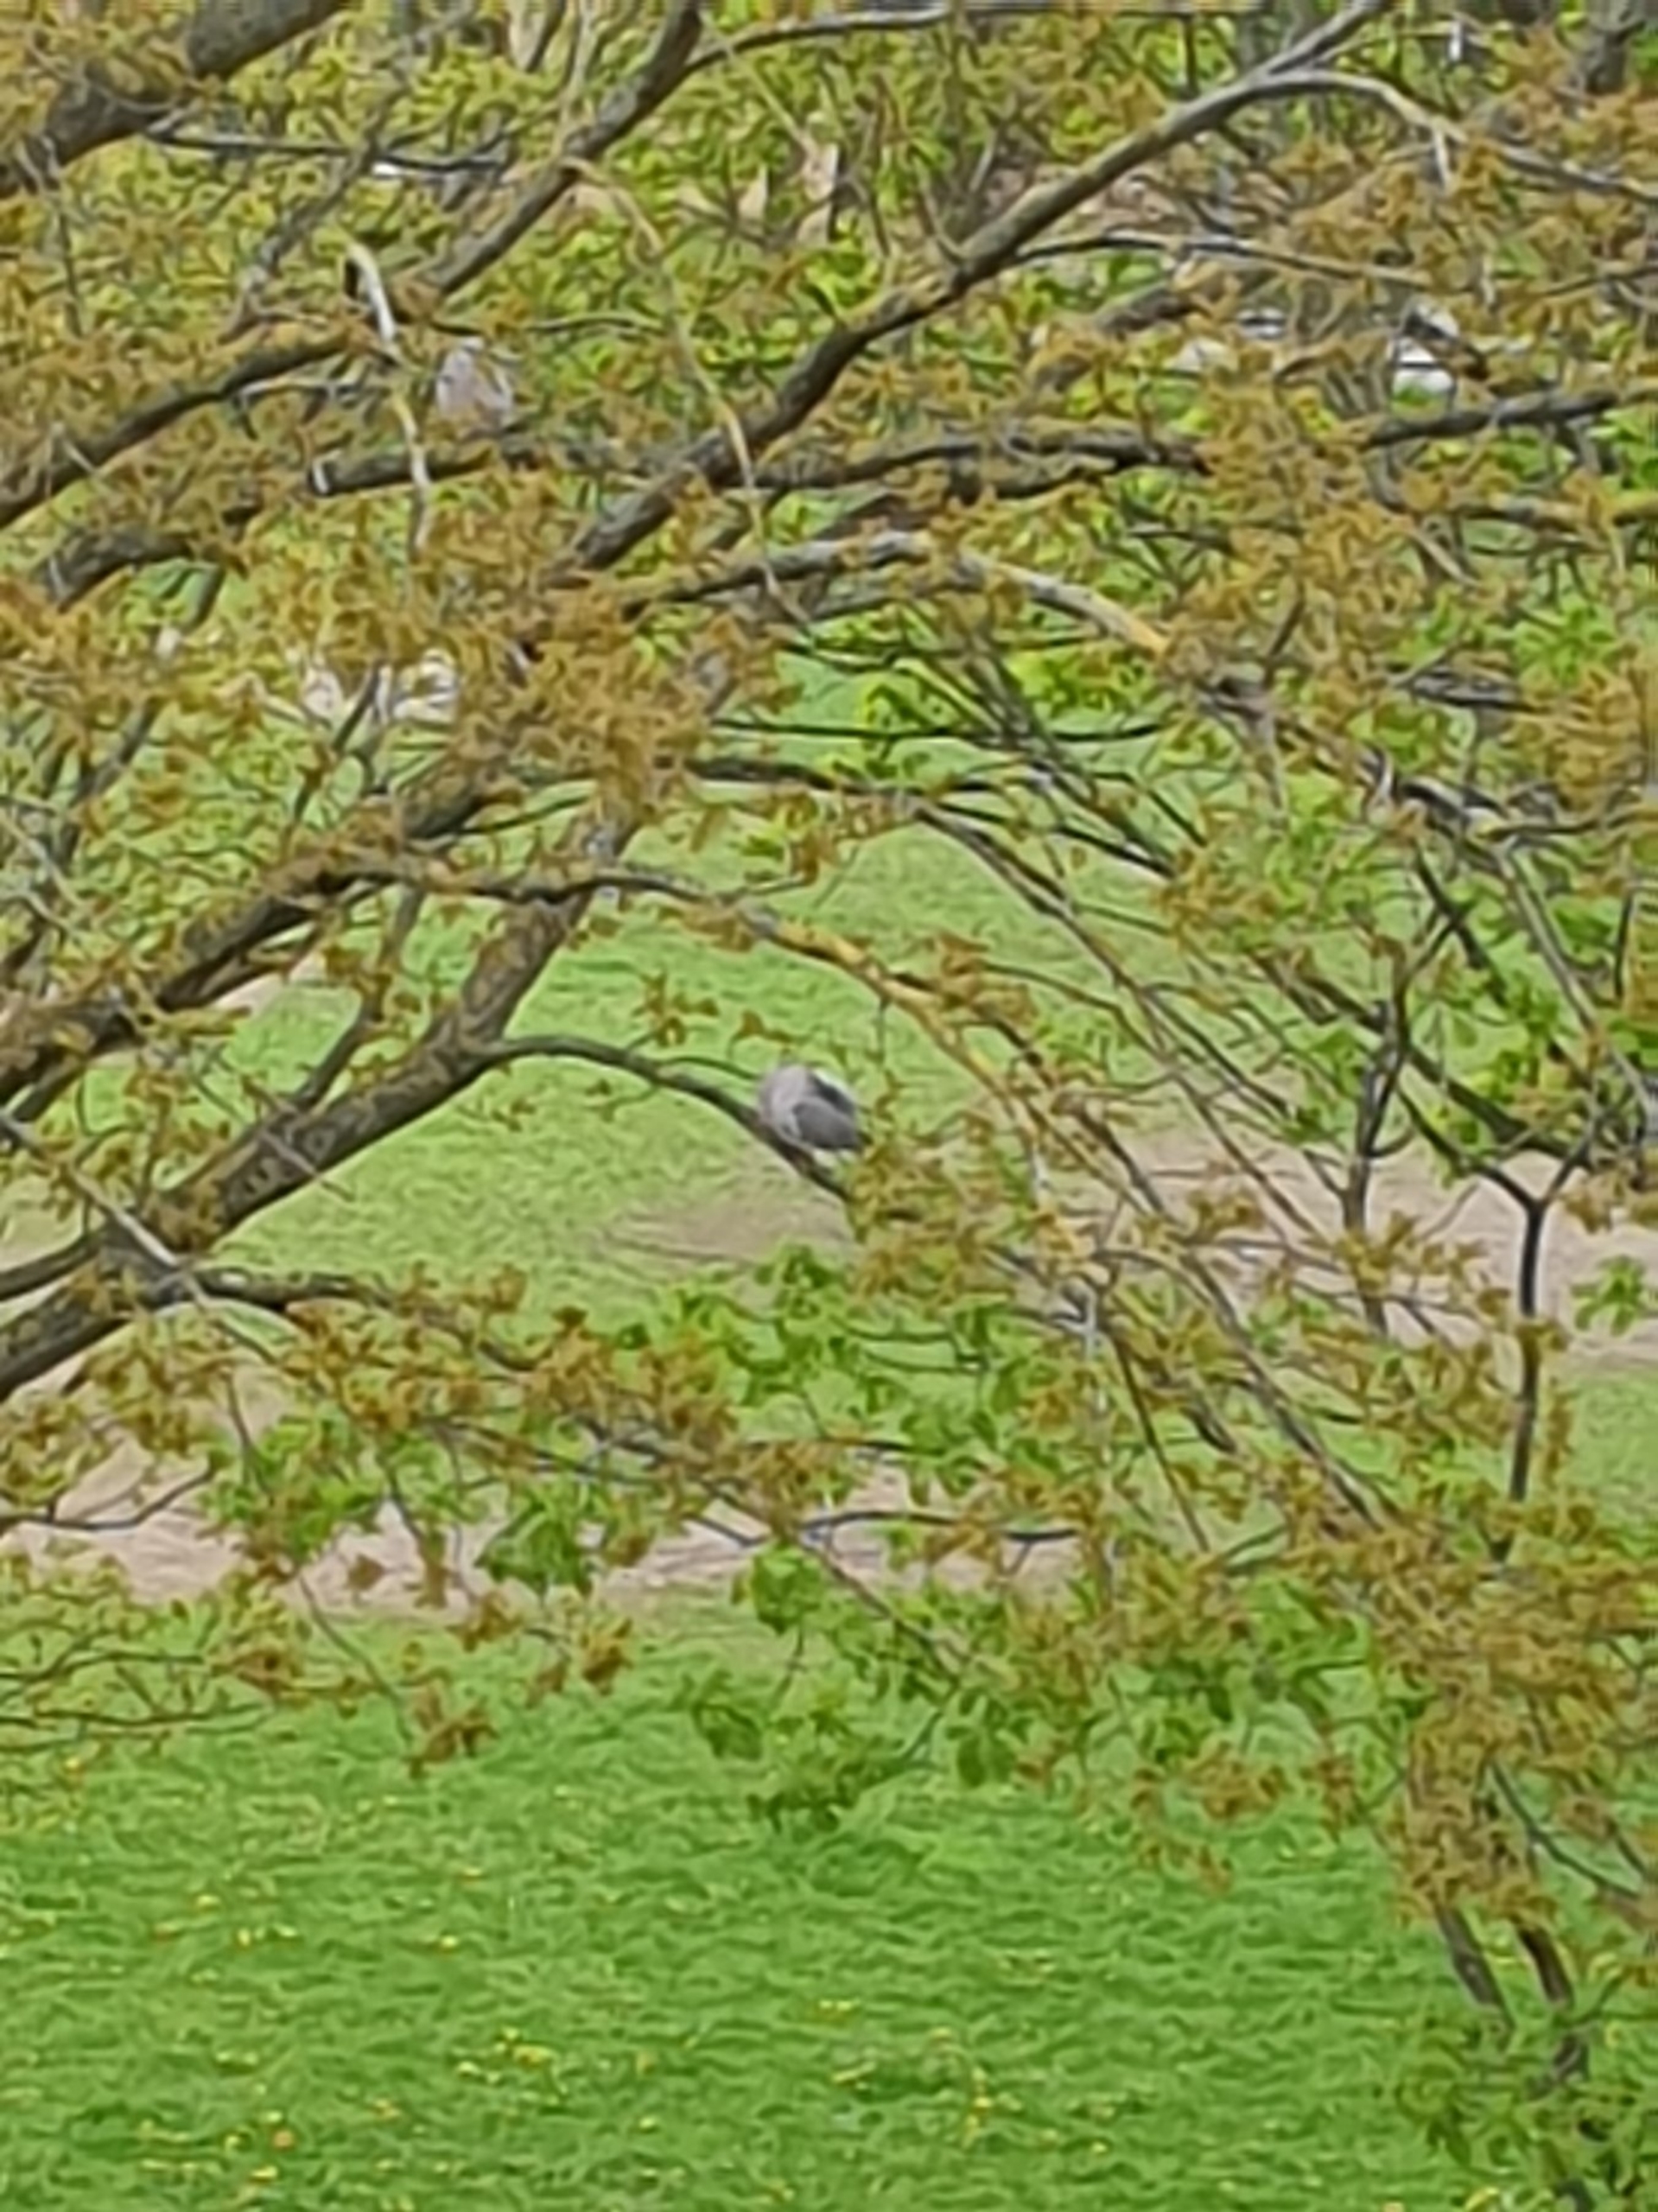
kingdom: Animalia
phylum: Chordata
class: Aves
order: Columbiformes
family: Columbidae
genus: Columba
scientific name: Columba palumbus
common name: Ringdue
